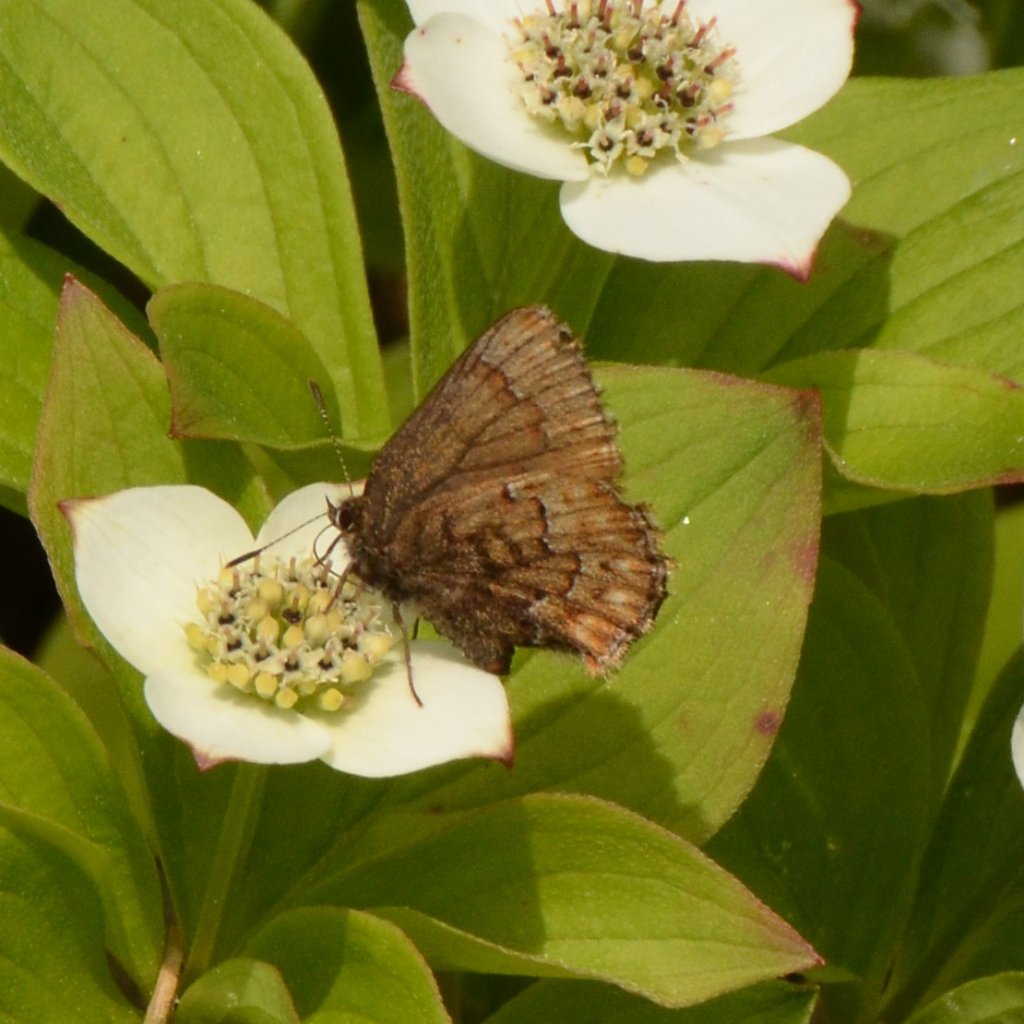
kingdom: Animalia
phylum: Arthropoda
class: Insecta
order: Lepidoptera
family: Lycaenidae
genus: Incisalia
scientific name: Incisalia niphon
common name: Eastern Pine Elfin
